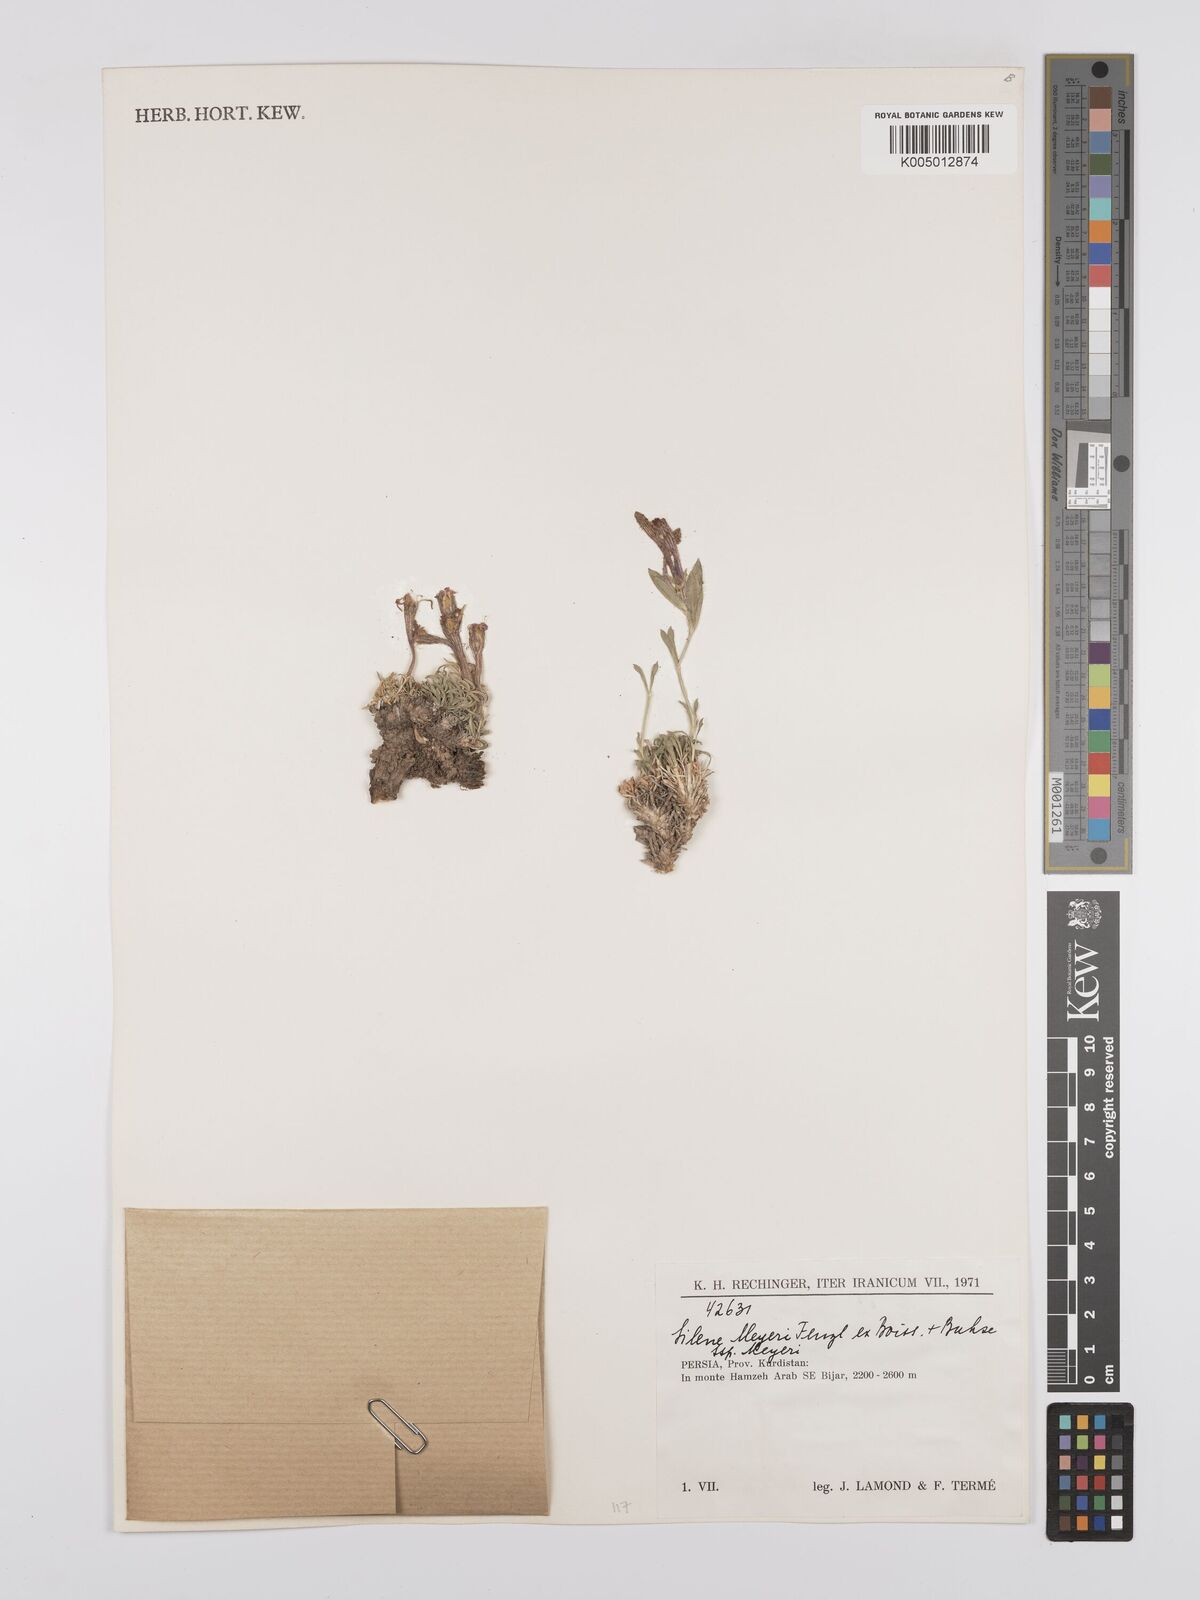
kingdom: Plantae
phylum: Tracheophyta
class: Magnoliopsida
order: Caryophyllales
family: Caryophyllaceae
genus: Silene
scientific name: Silene meyeri
